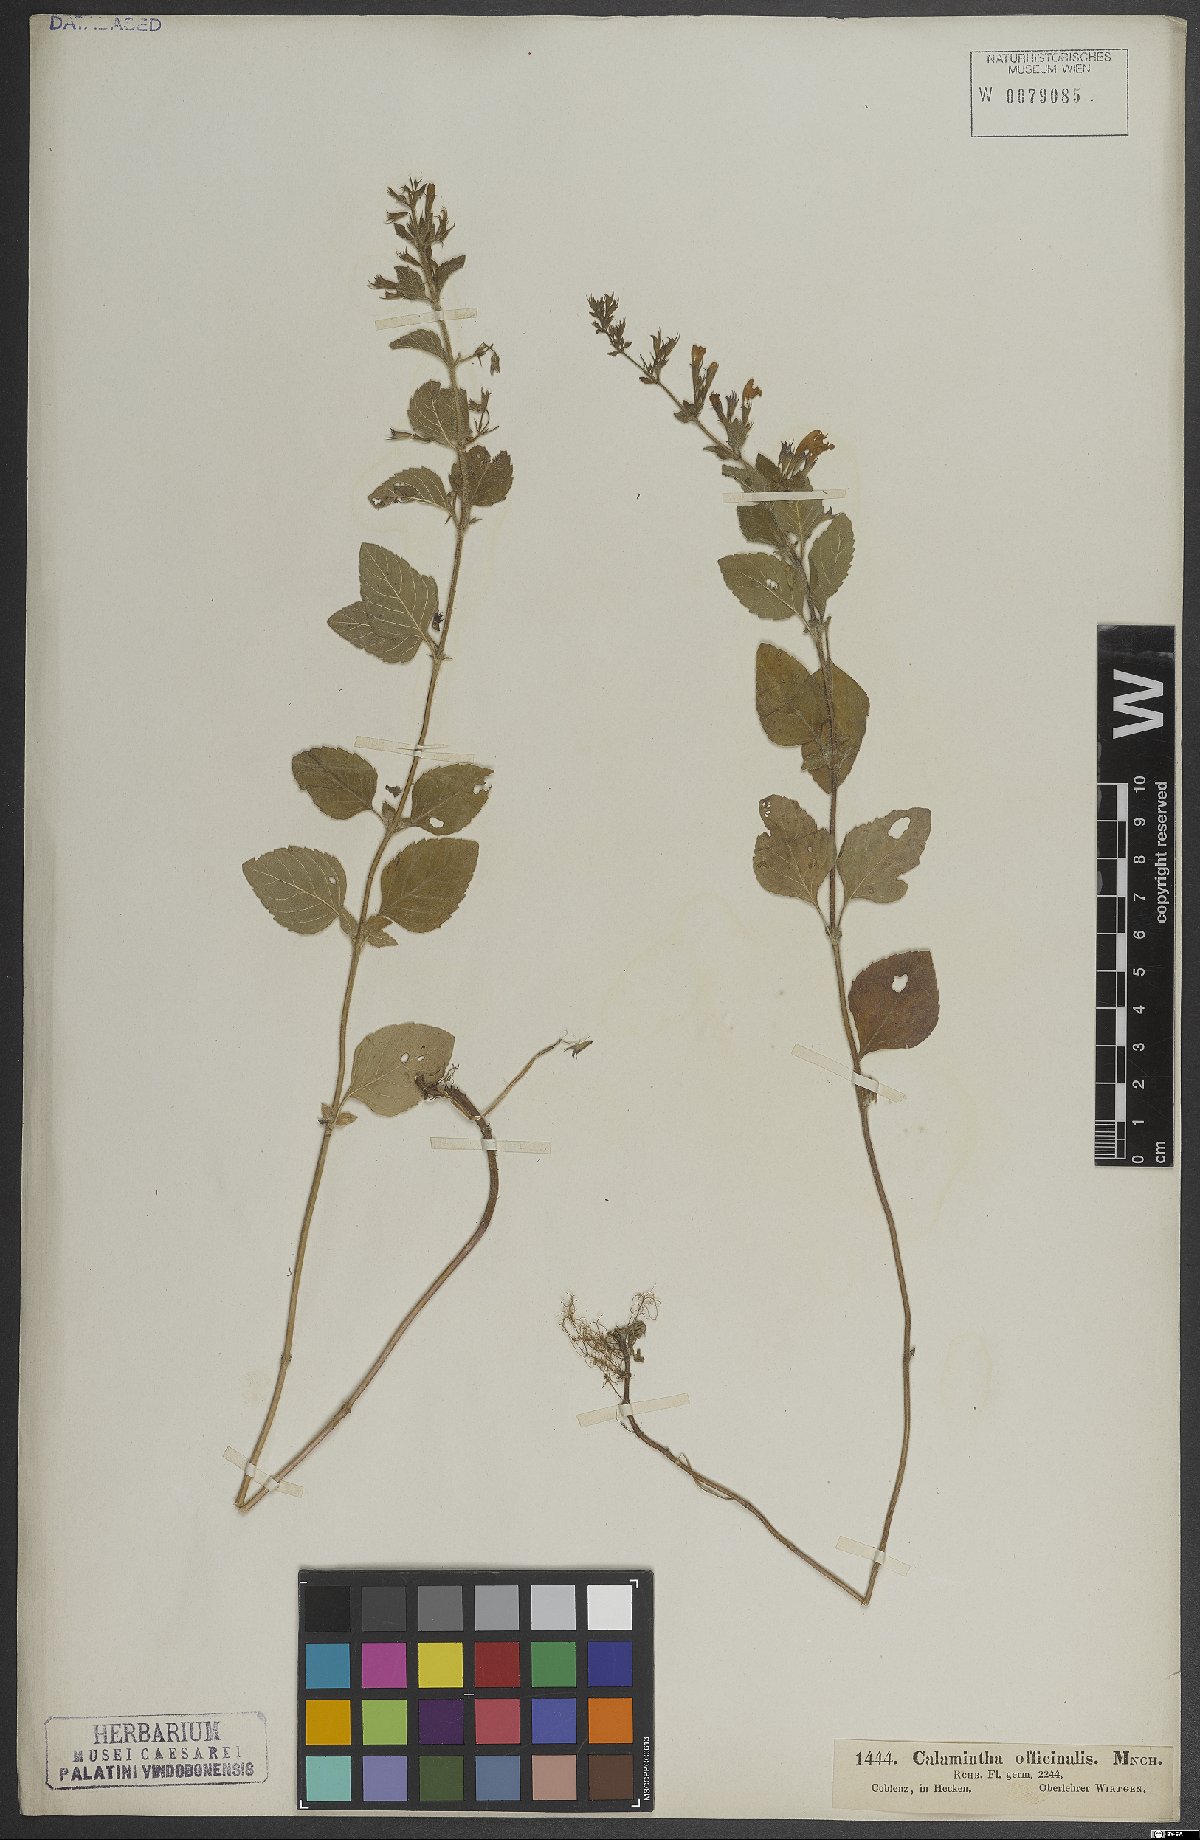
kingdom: Plantae
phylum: Tracheophyta
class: Magnoliopsida
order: Lamiales
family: Lamiaceae
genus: Clinopodium
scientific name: Clinopodium nepeta
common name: Lesser calamint
